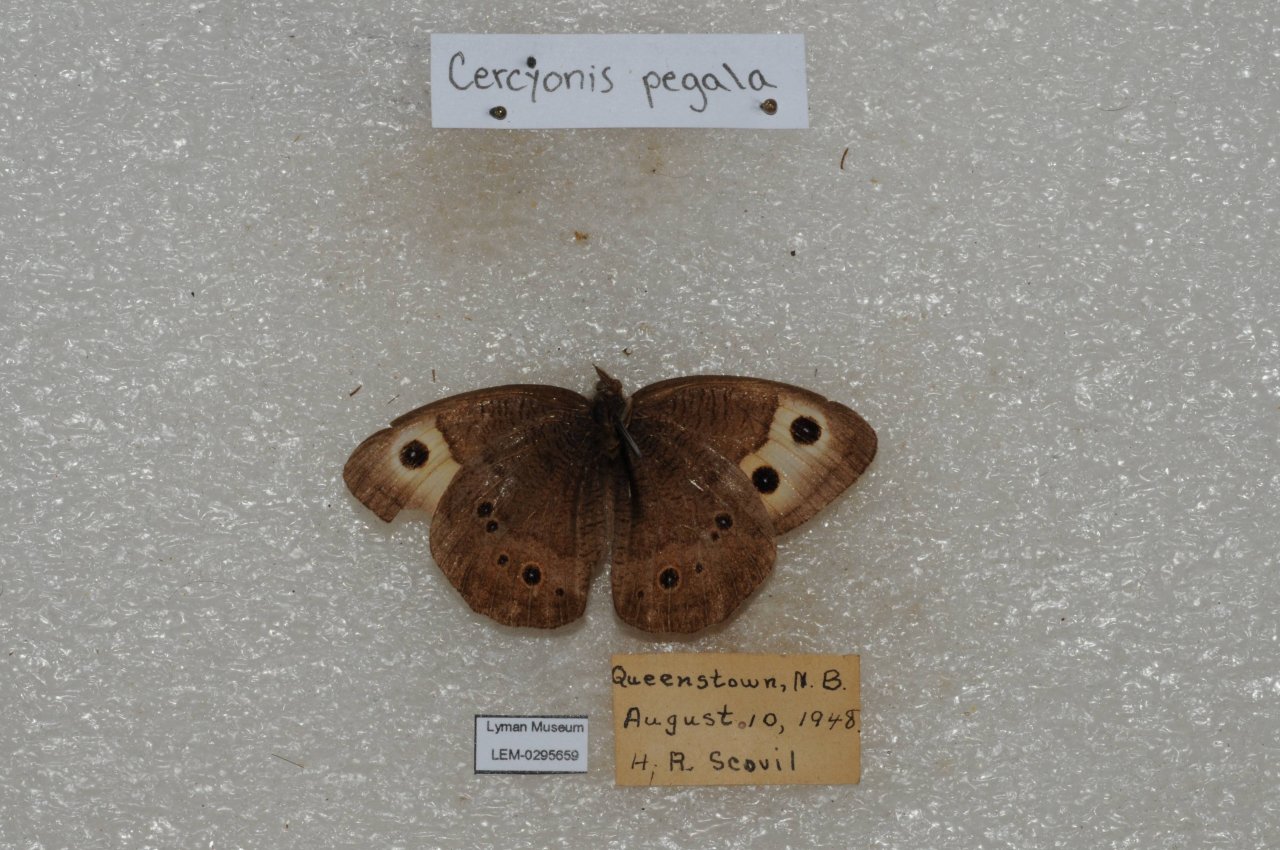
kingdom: Animalia
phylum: Arthropoda
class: Insecta
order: Lepidoptera
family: Nymphalidae
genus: Cercyonis
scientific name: Cercyonis pegala
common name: Common Wood-Nymph
